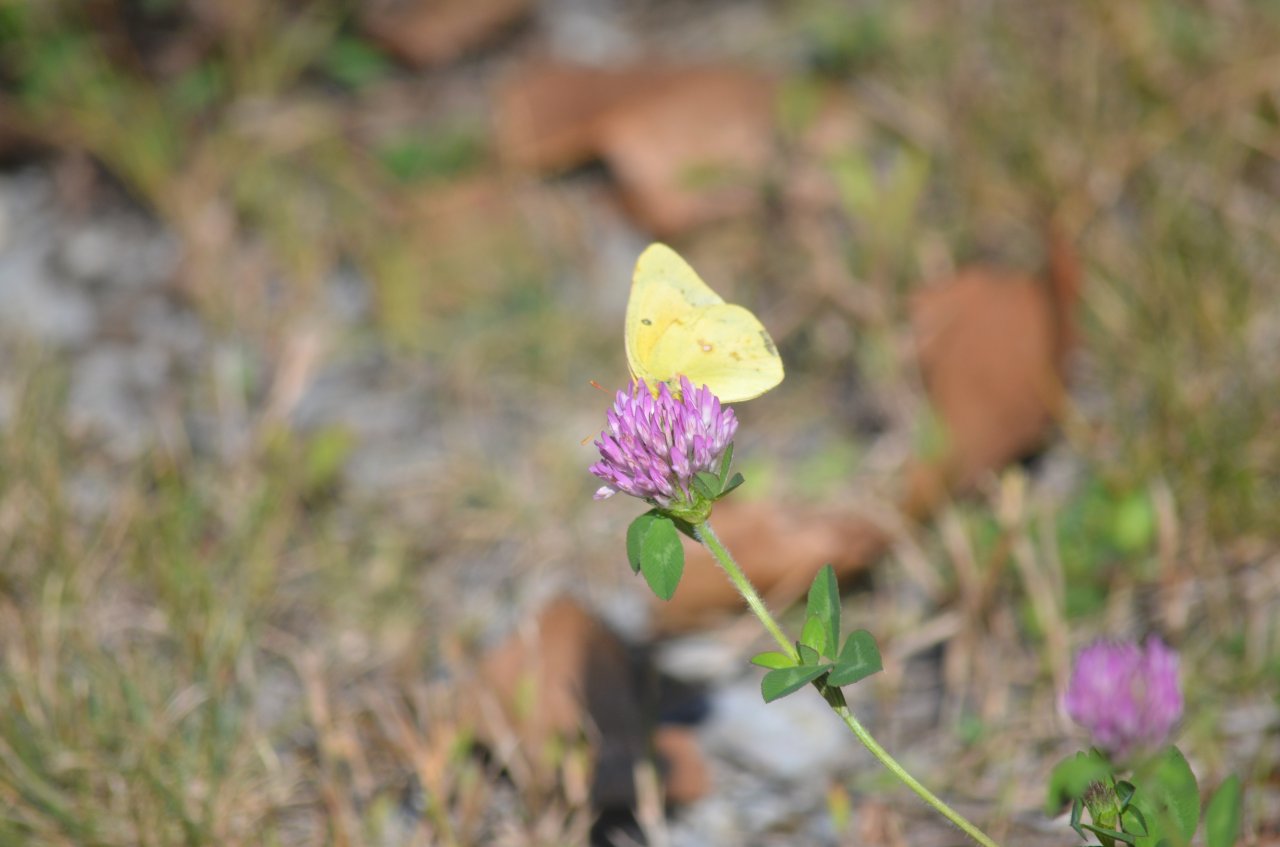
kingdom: Animalia
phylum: Arthropoda
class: Insecta
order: Lepidoptera
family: Pieridae
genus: Colias
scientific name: Colias eurytheme
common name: Orange Sulphur
